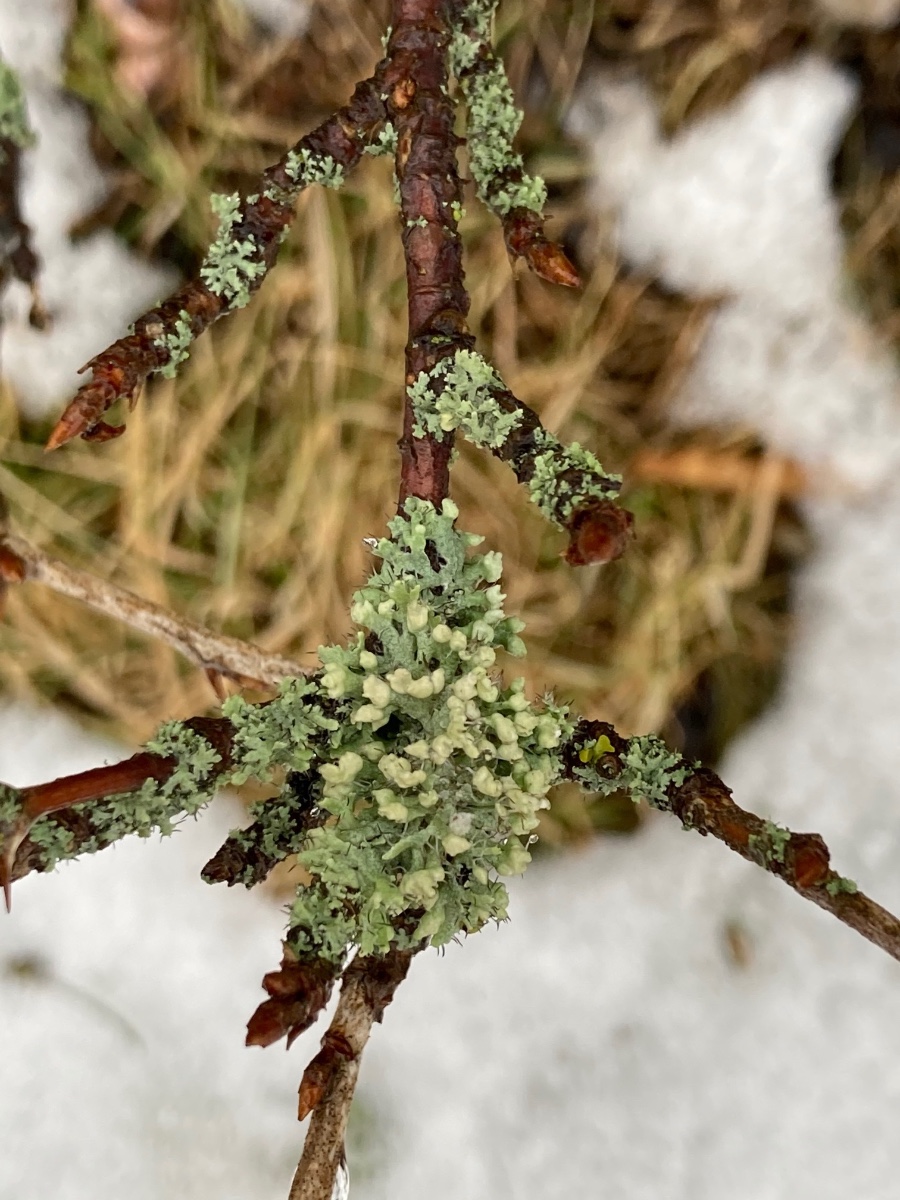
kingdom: Fungi
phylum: Ascomycota
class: Lecanoromycetes
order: Caliciales
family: Physciaceae
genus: Physcia
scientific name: Physcia adscendens
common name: hætte-rosetlav
